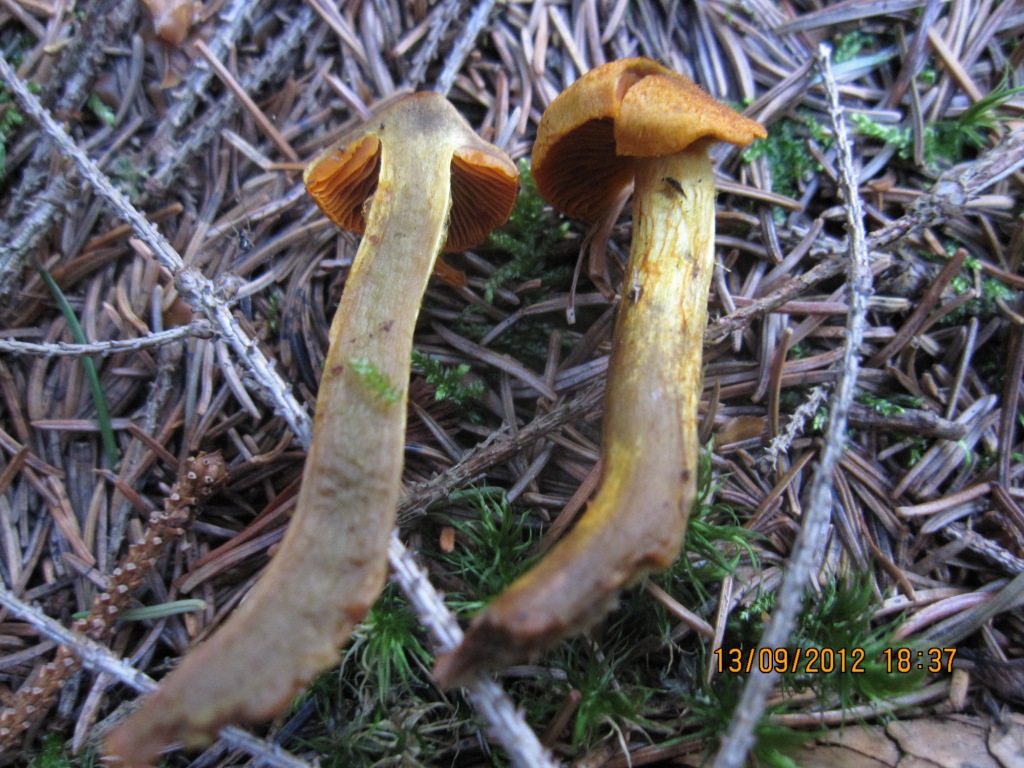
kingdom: Fungi
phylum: Basidiomycota
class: Agaricomycetes
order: Agaricales
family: Cortinariaceae
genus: Cortinarius
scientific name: Cortinarius malicorius
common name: grønkødet slørhat
